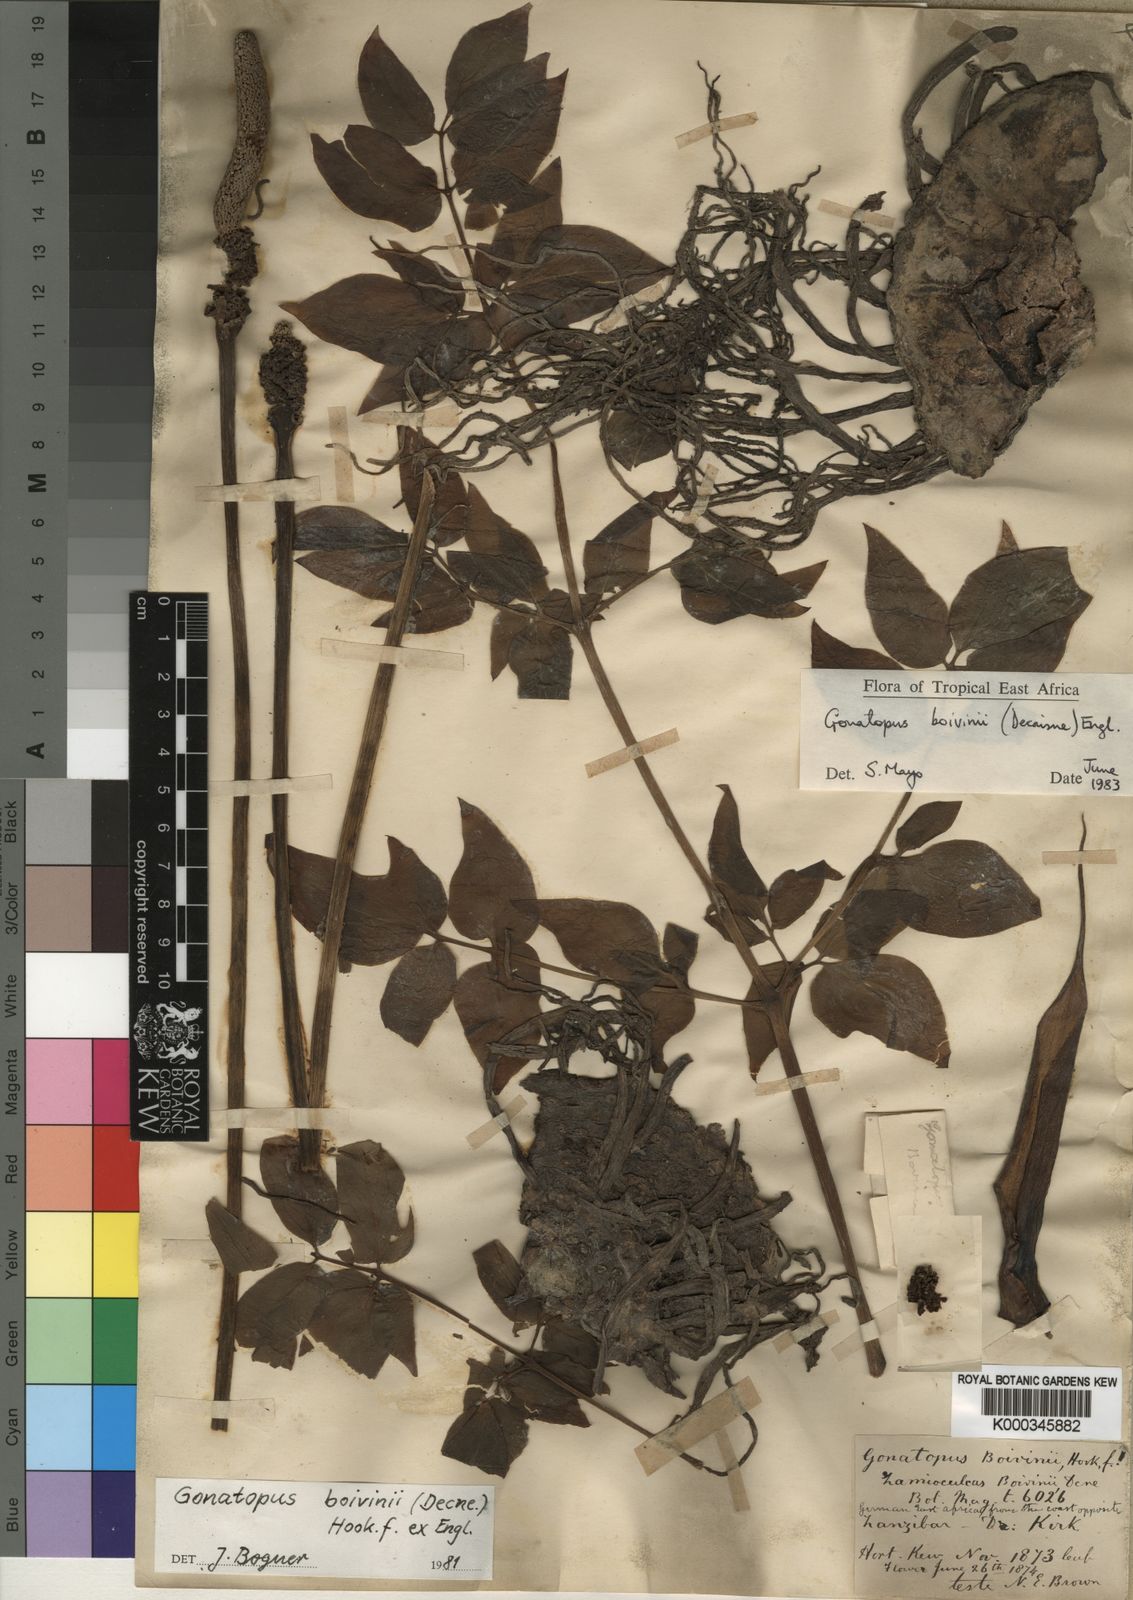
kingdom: Plantae
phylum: Tracheophyta
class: Liliopsida
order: Alismatales
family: Araceae
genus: Gonatopus
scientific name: Gonatopus boivinii
